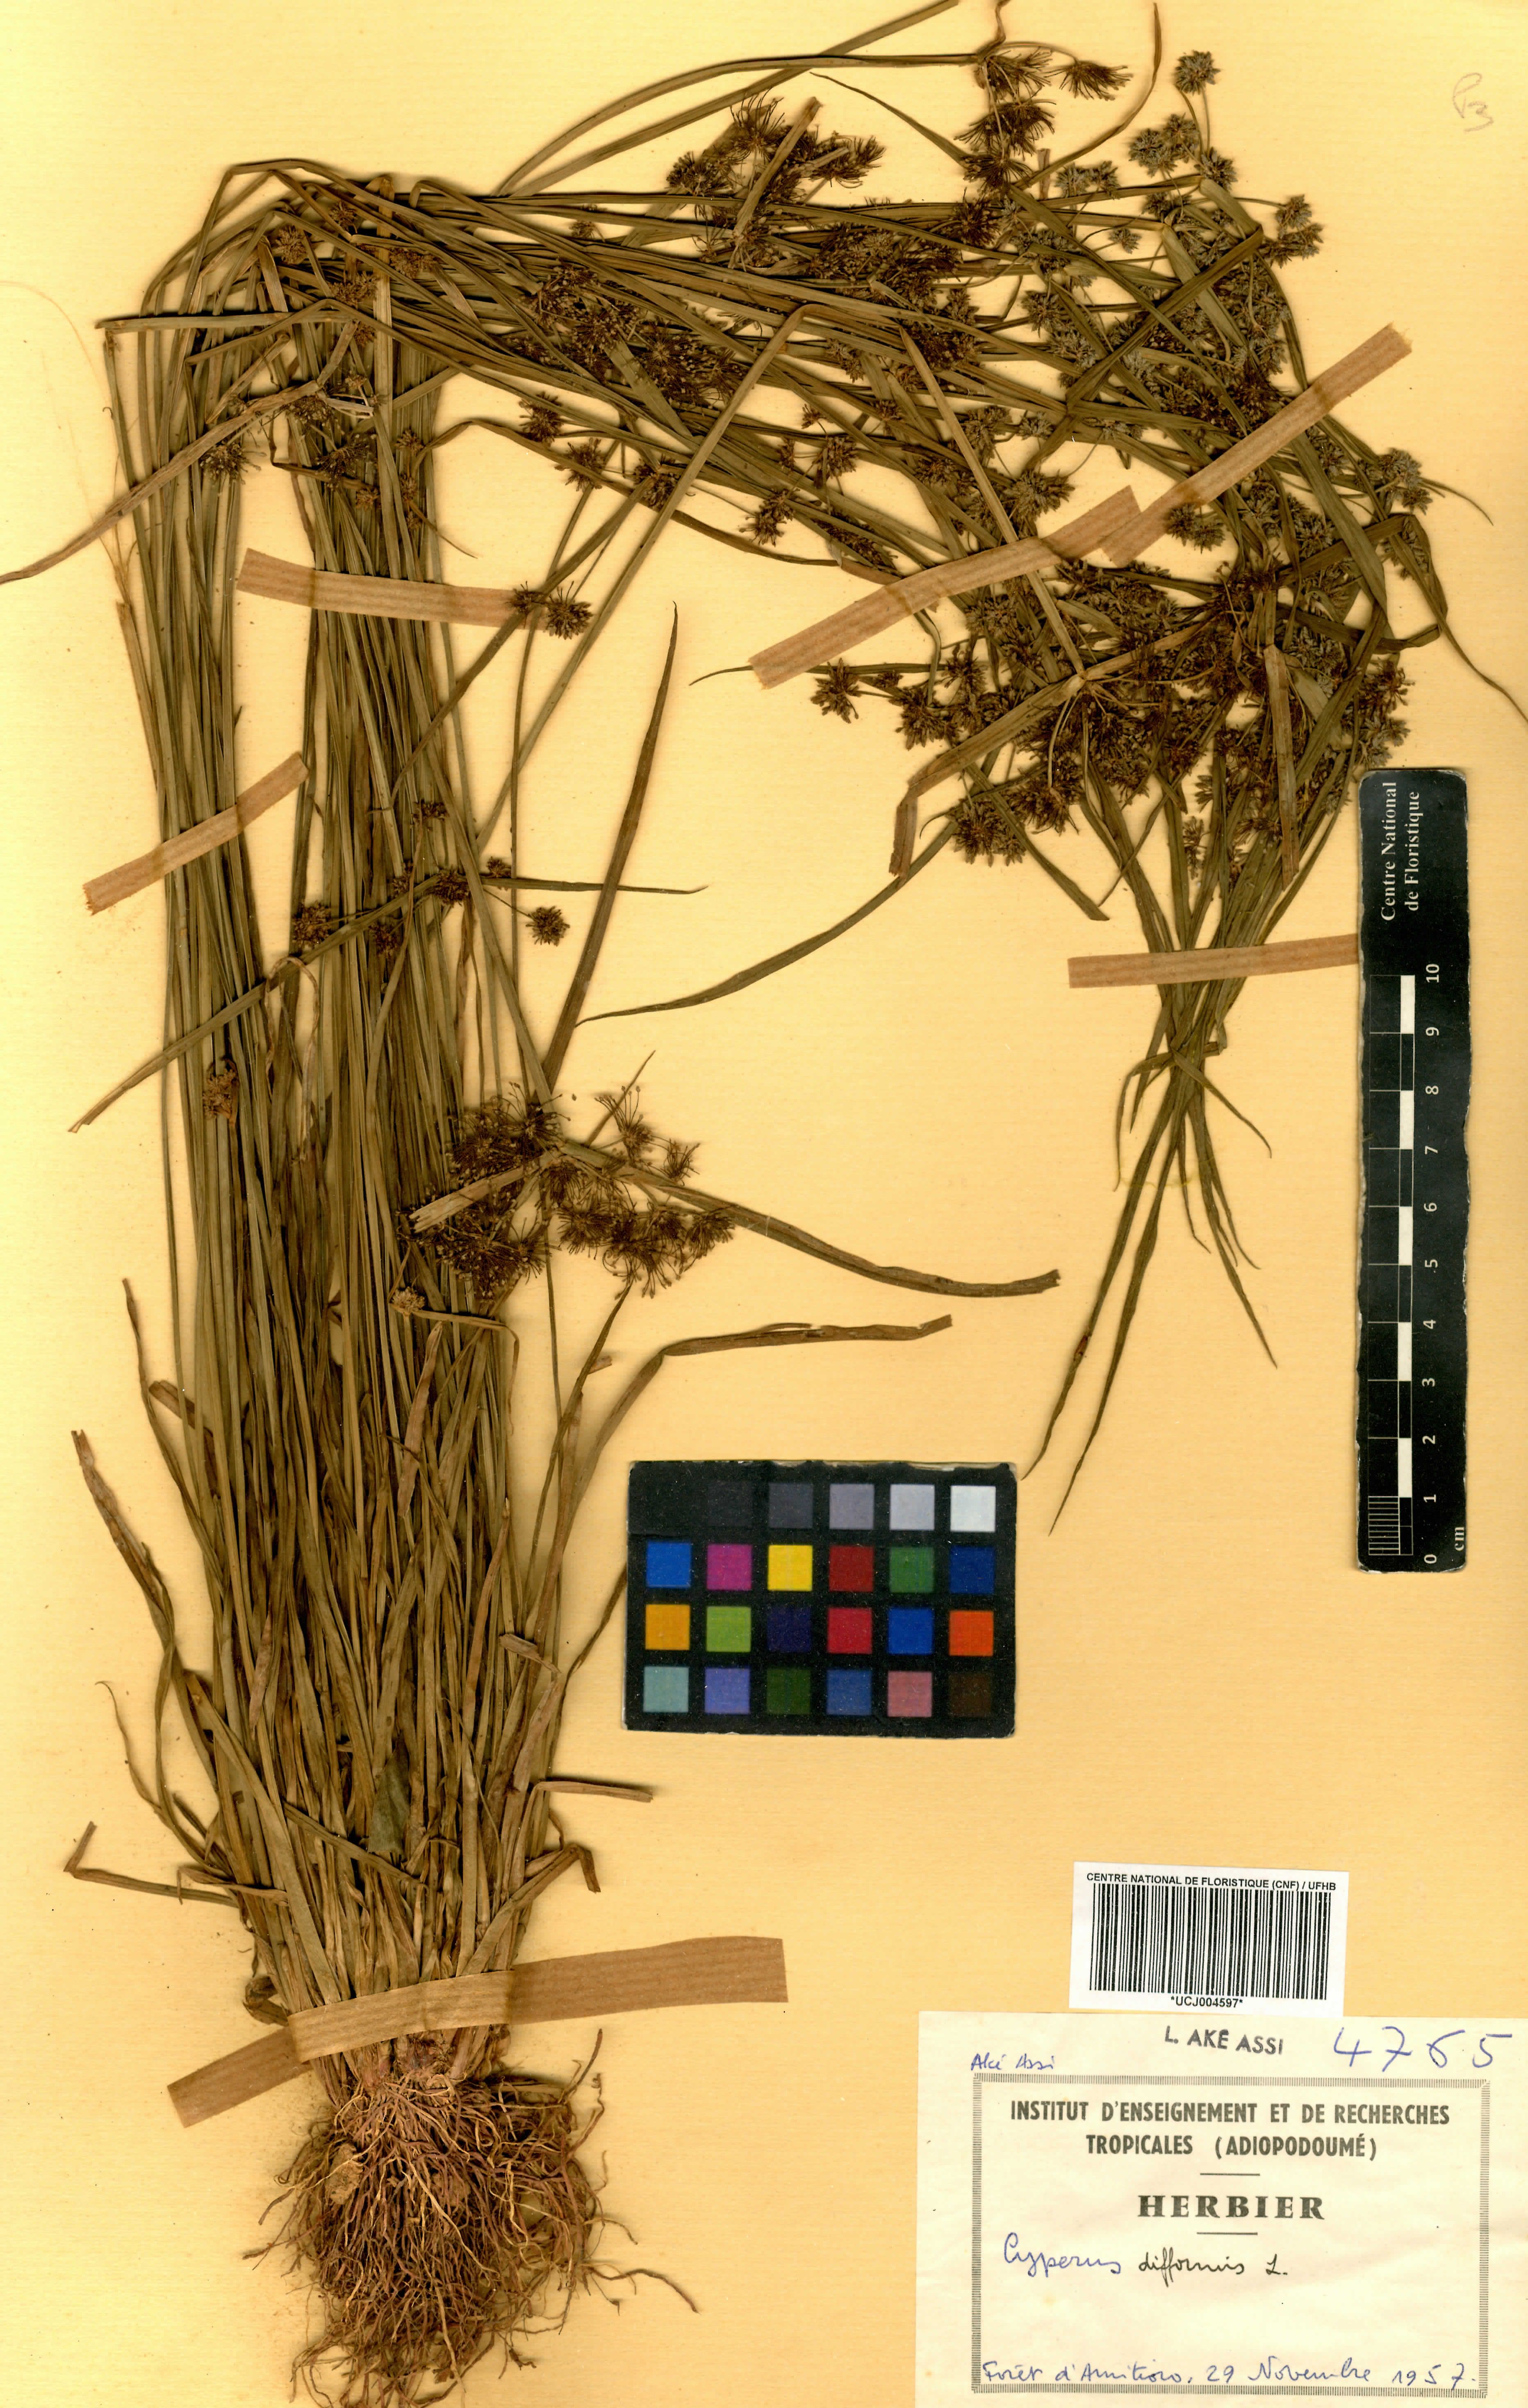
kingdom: Plantae
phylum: Tracheophyta
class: Liliopsida
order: Poales
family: Cyperaceae
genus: Cyperus
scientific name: Cyperus difformis
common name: Variable flatsedge
